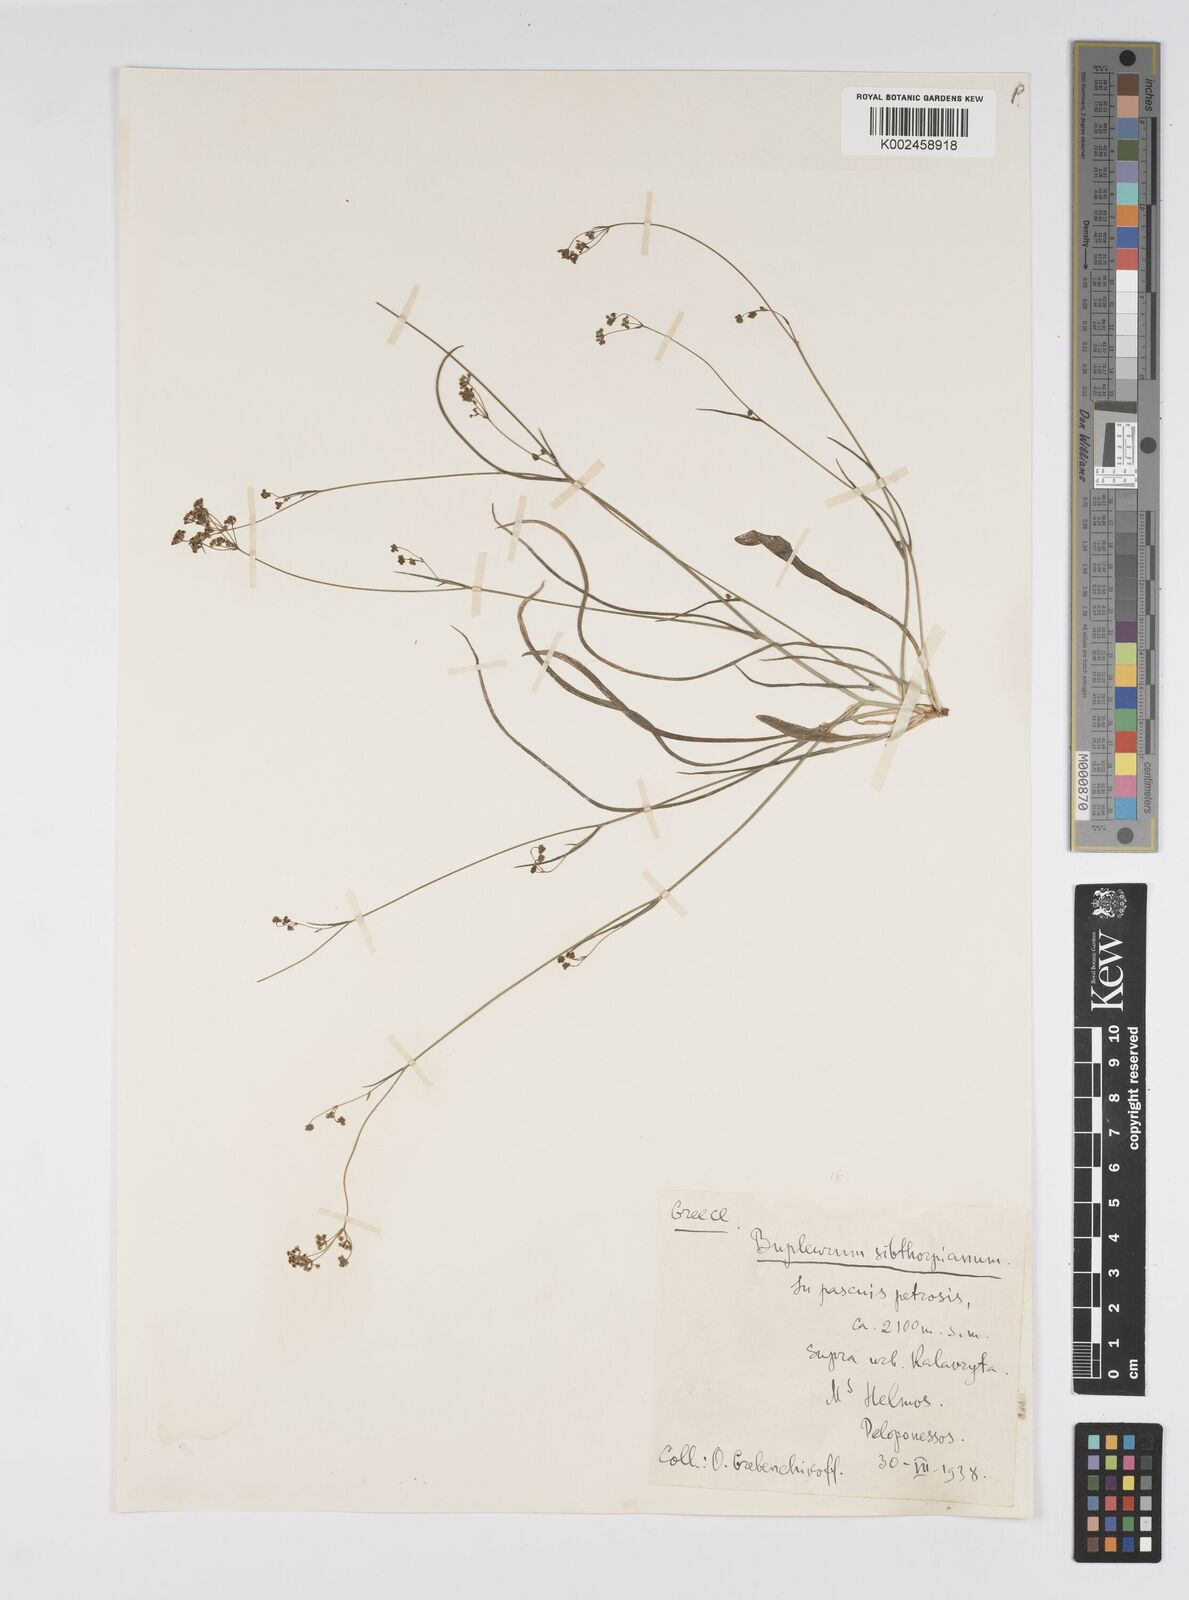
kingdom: Plantae
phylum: Tracheophyta
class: Magnoliopsida
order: Apiales
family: Apiaceae
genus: Bupleurum
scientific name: Bupleurum falcatum
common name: Sickle-leaved hare's-ear
